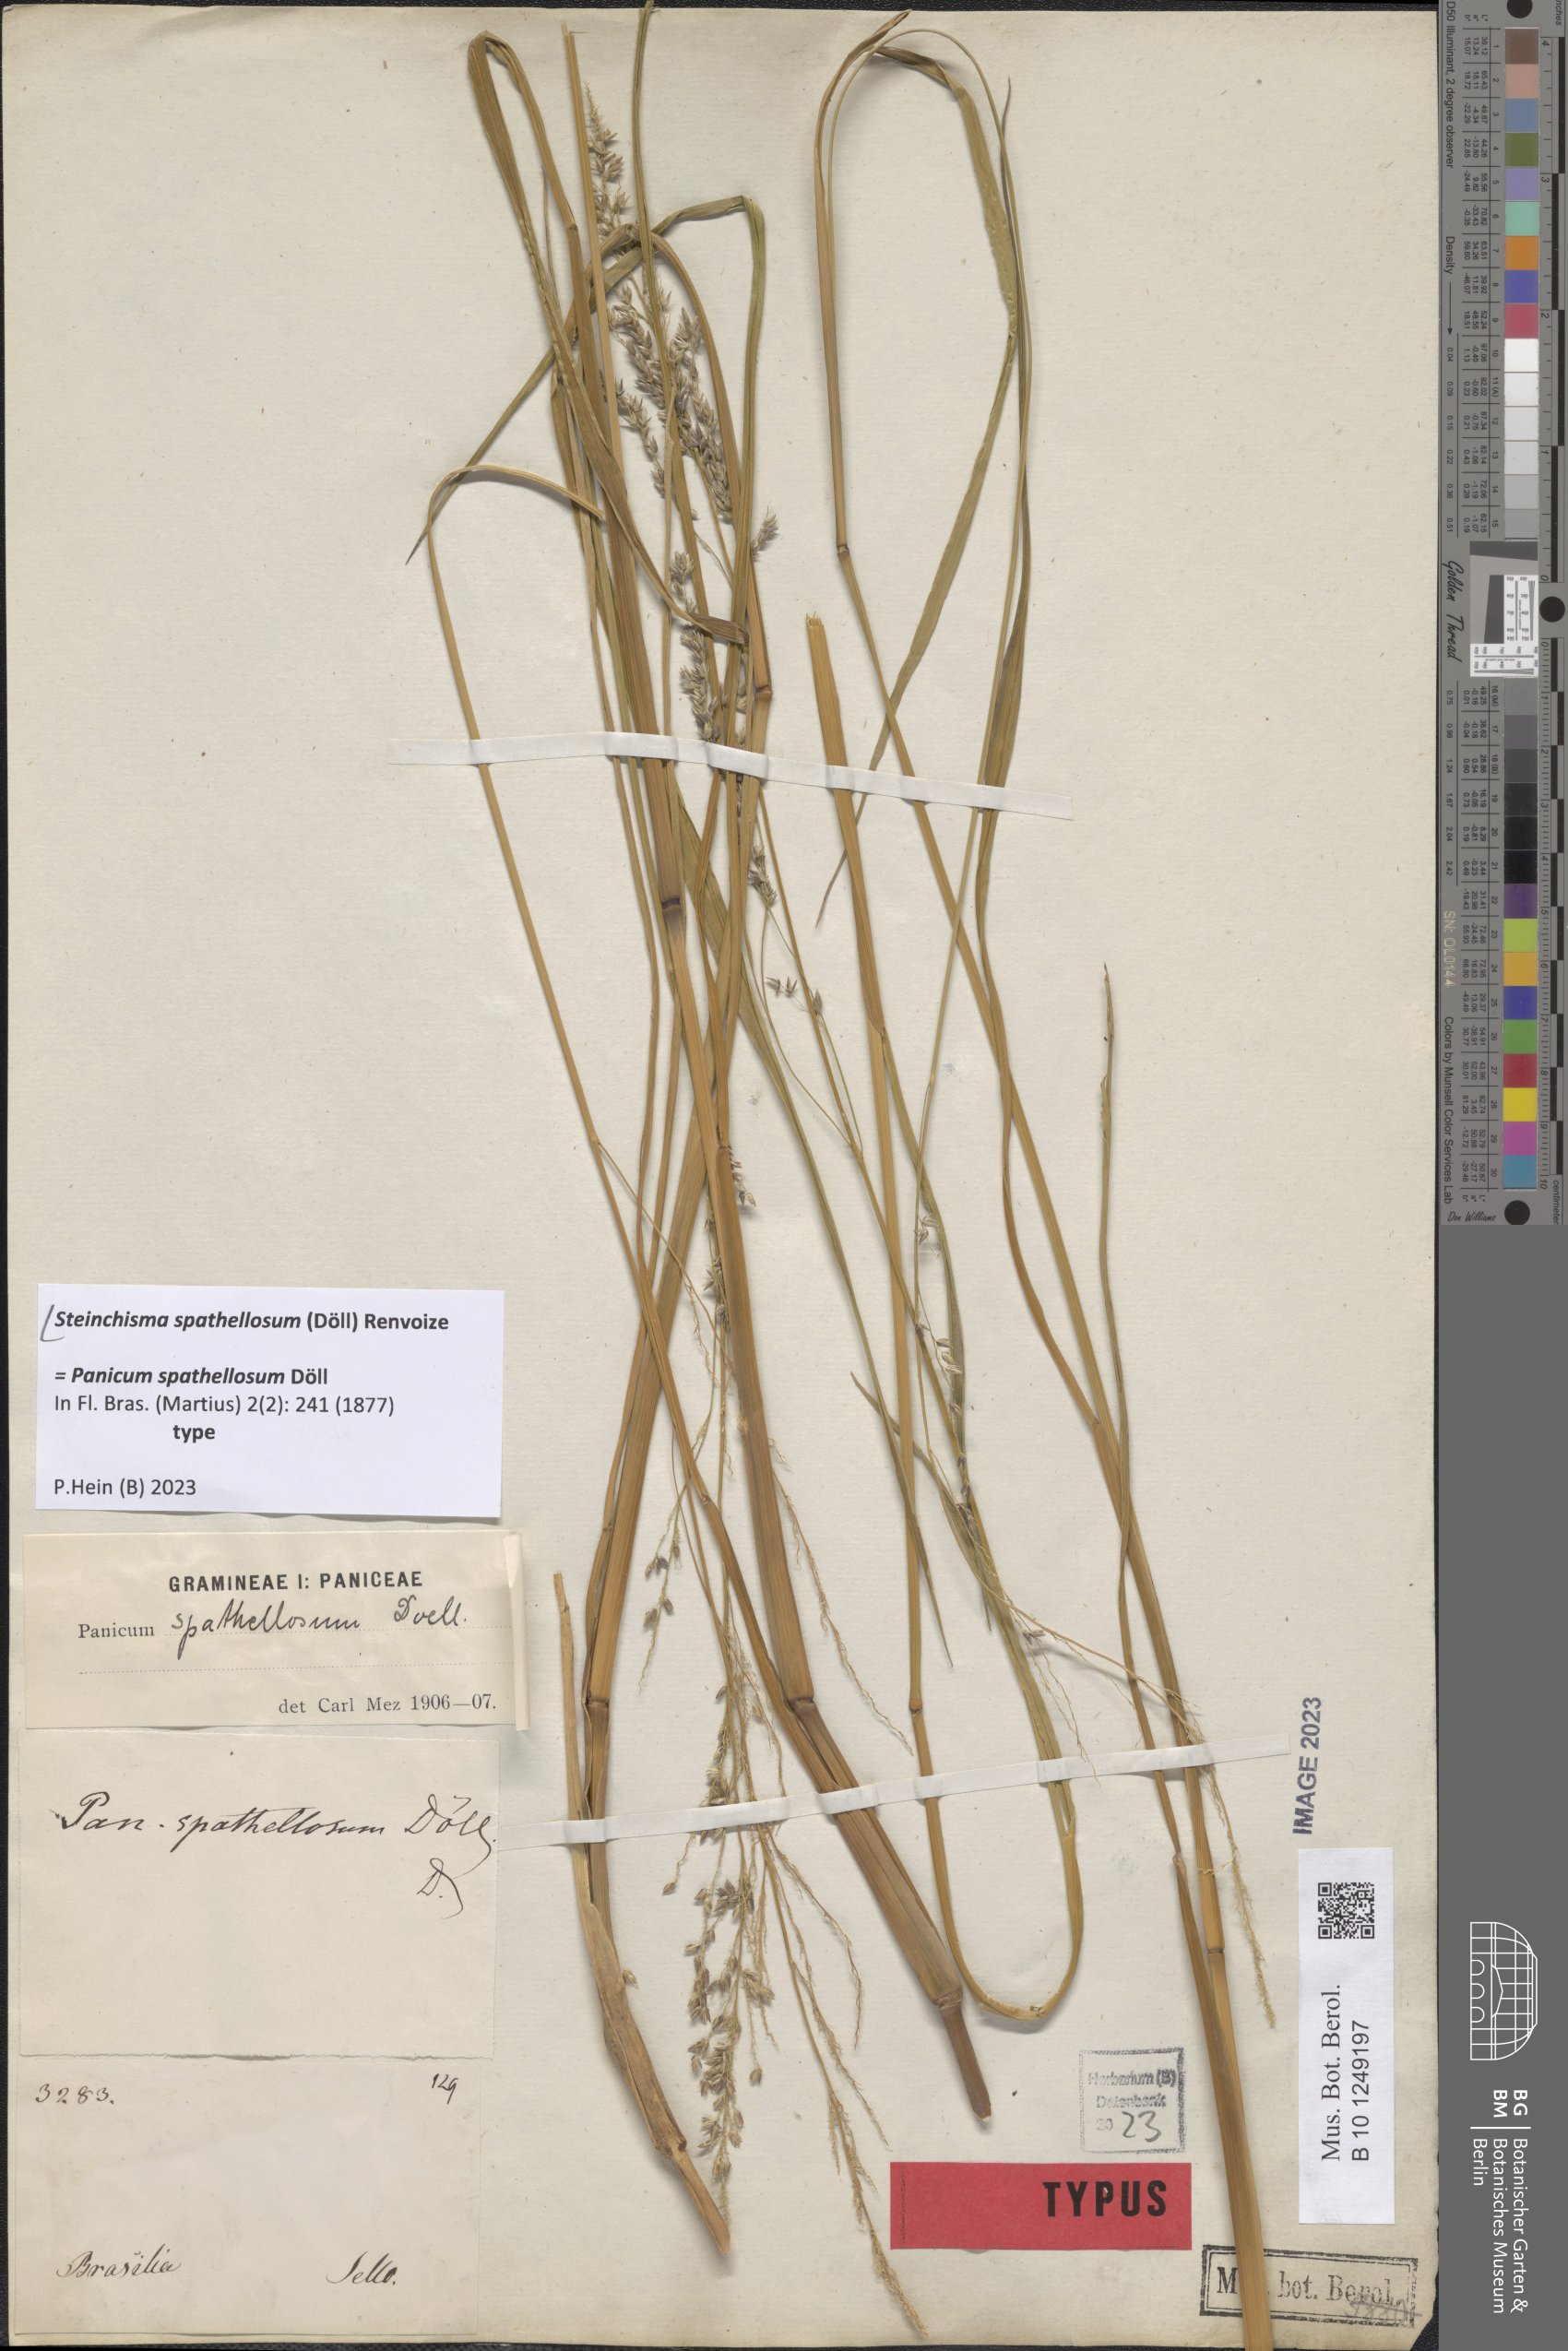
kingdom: Plantae
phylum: Tracheophyta
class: Liliopsida
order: Poales
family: Poaceae
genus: Steinchisma
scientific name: Steinchisma spathellosum
